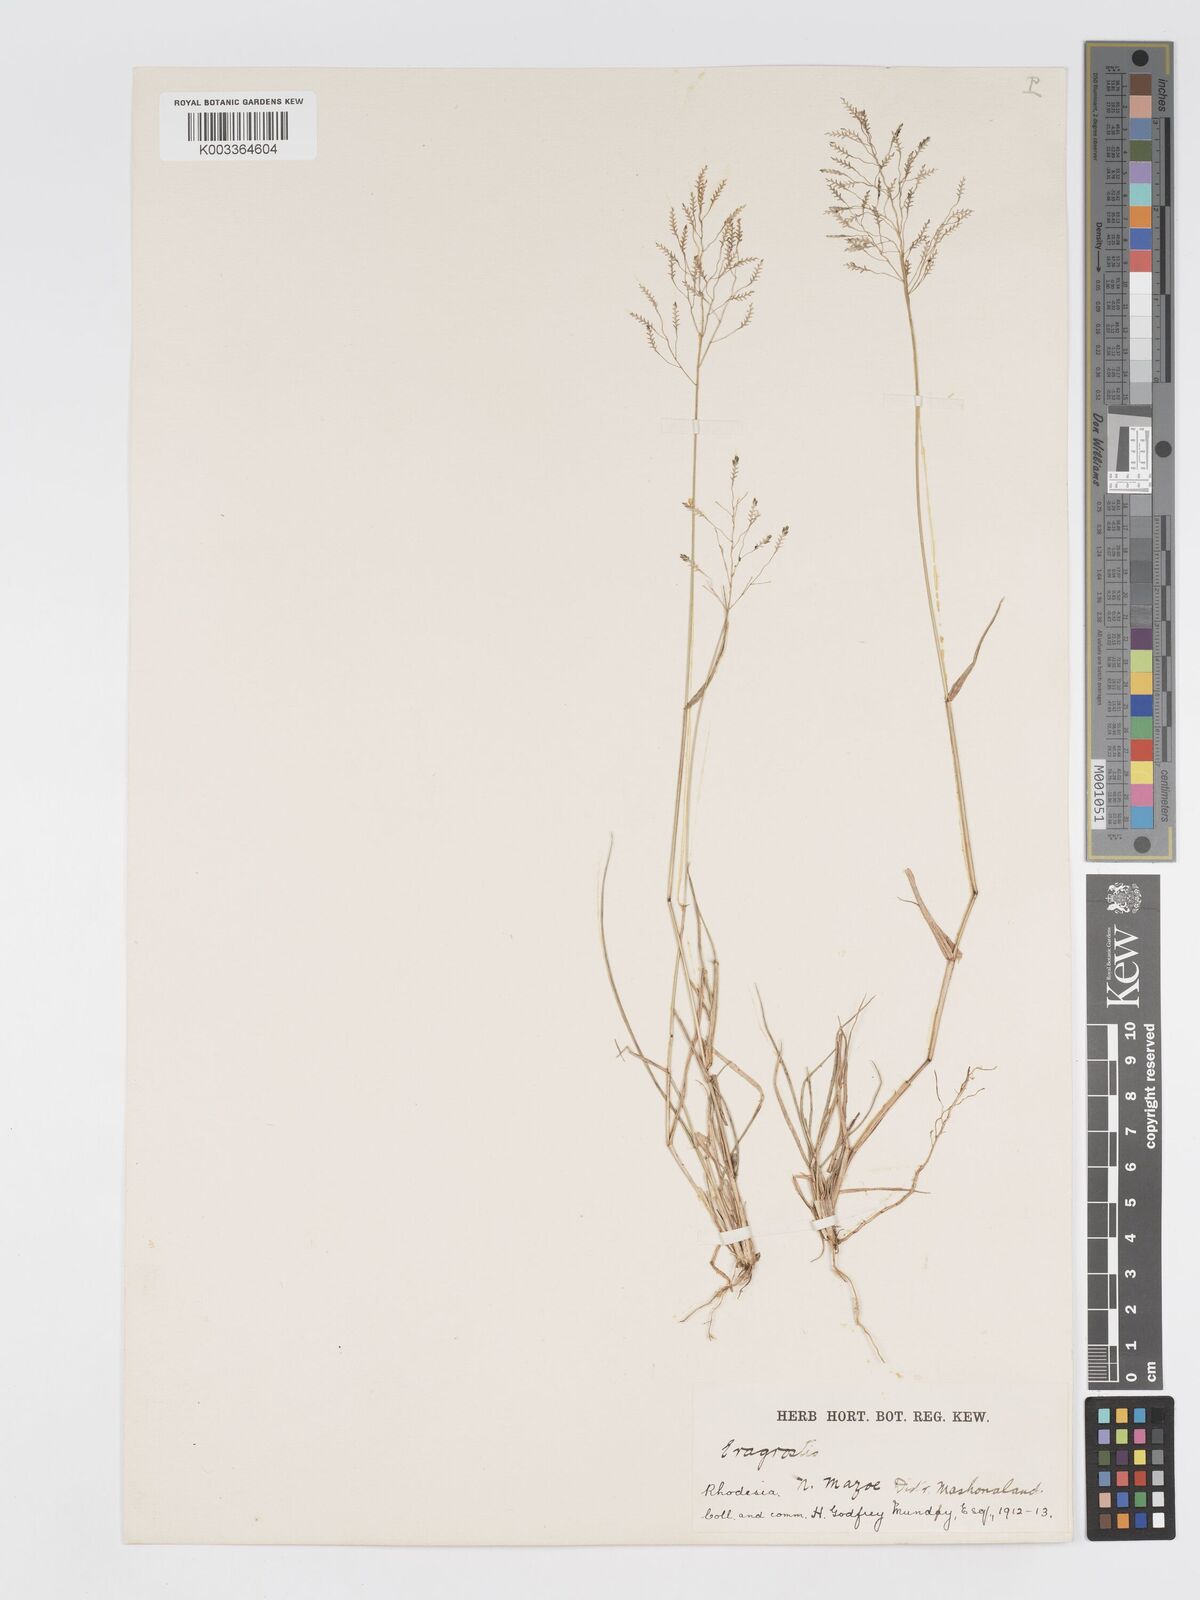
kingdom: Plantae
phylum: Tracheophyta
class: Liliopsida
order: Poales
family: Poaceae
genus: Eragrostis
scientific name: Eragrostis patentipilosa
